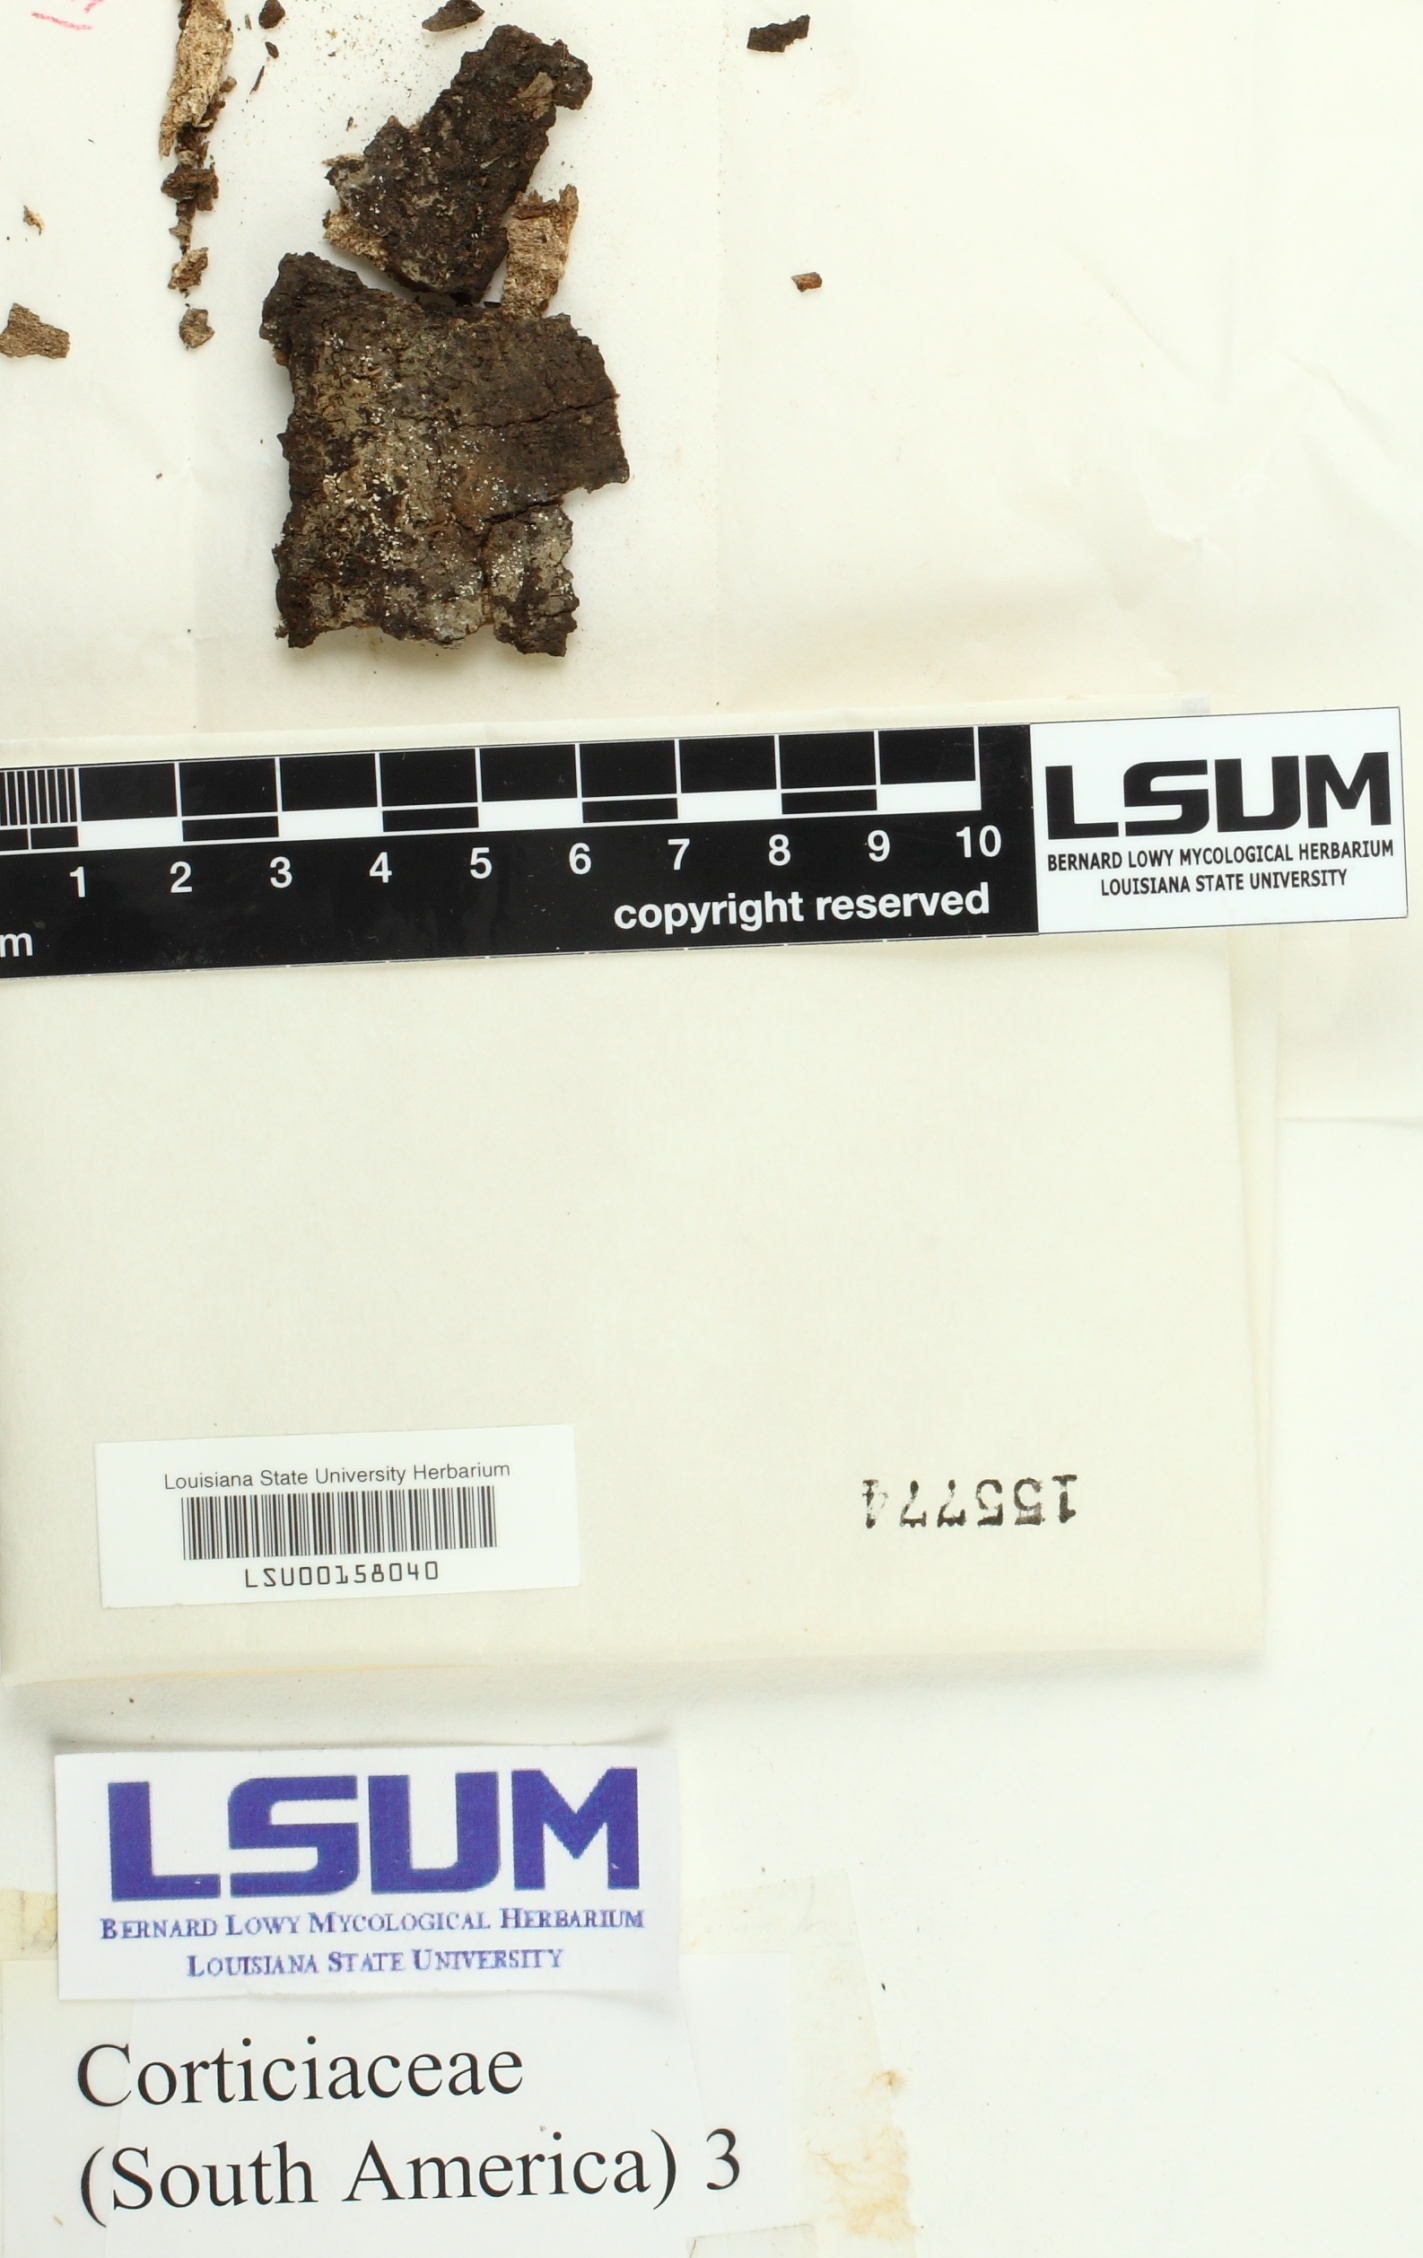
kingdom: Fungi
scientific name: Fungi
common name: Fungi
